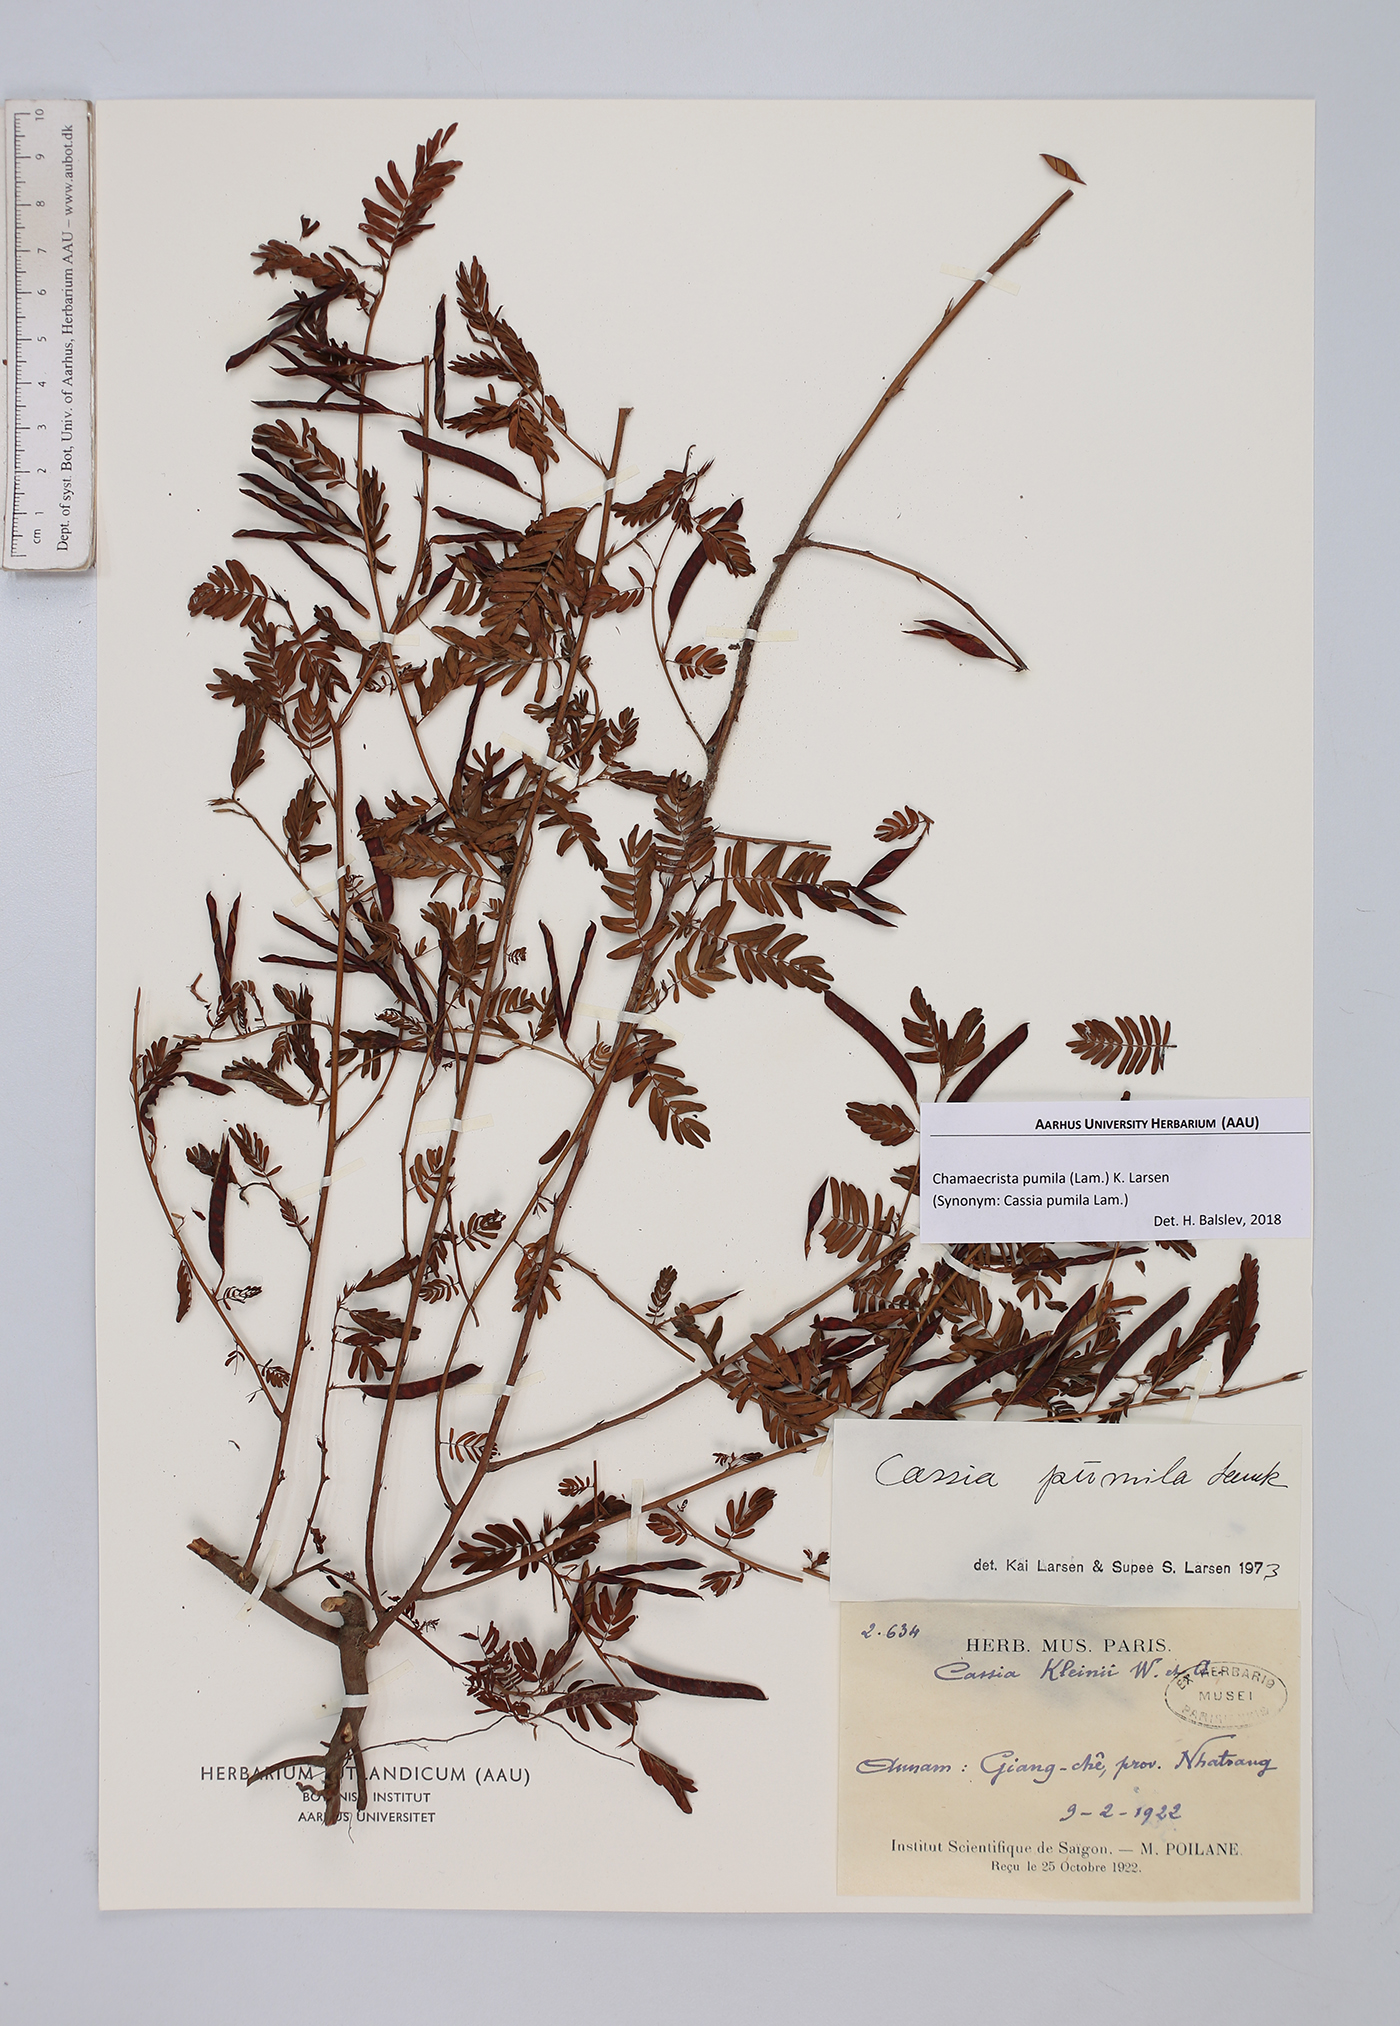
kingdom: Plantae
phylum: Tracheophyta
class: Magnoliopsida
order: Fabales
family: Fabaceae
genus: Chamaecrista
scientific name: Chamaecrista pumila
